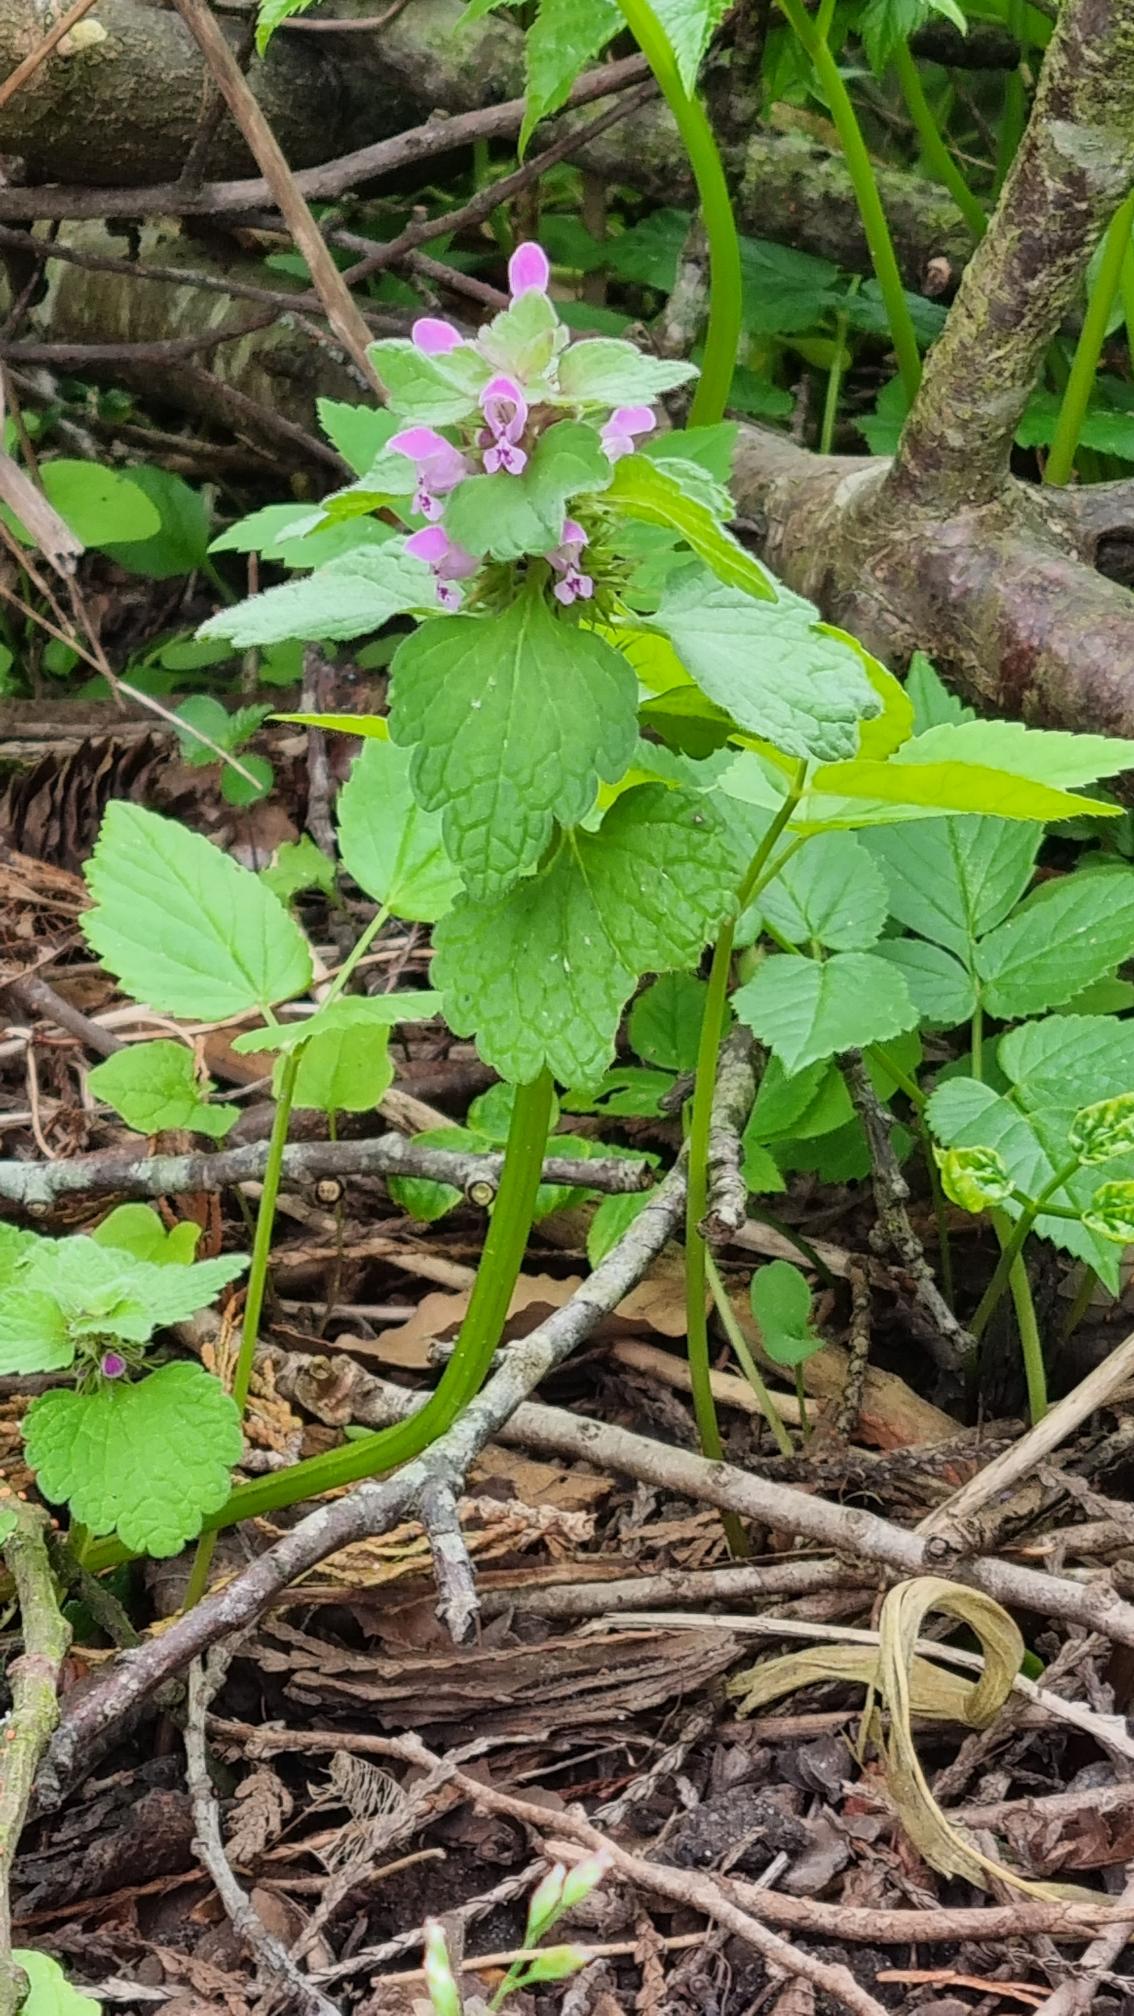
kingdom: Plantae
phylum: Tracheophyta
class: Magnoliopsida
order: Lamiales
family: Lamiaceae
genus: Lamium
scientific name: Lamium purpureum
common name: Rød tvetand
